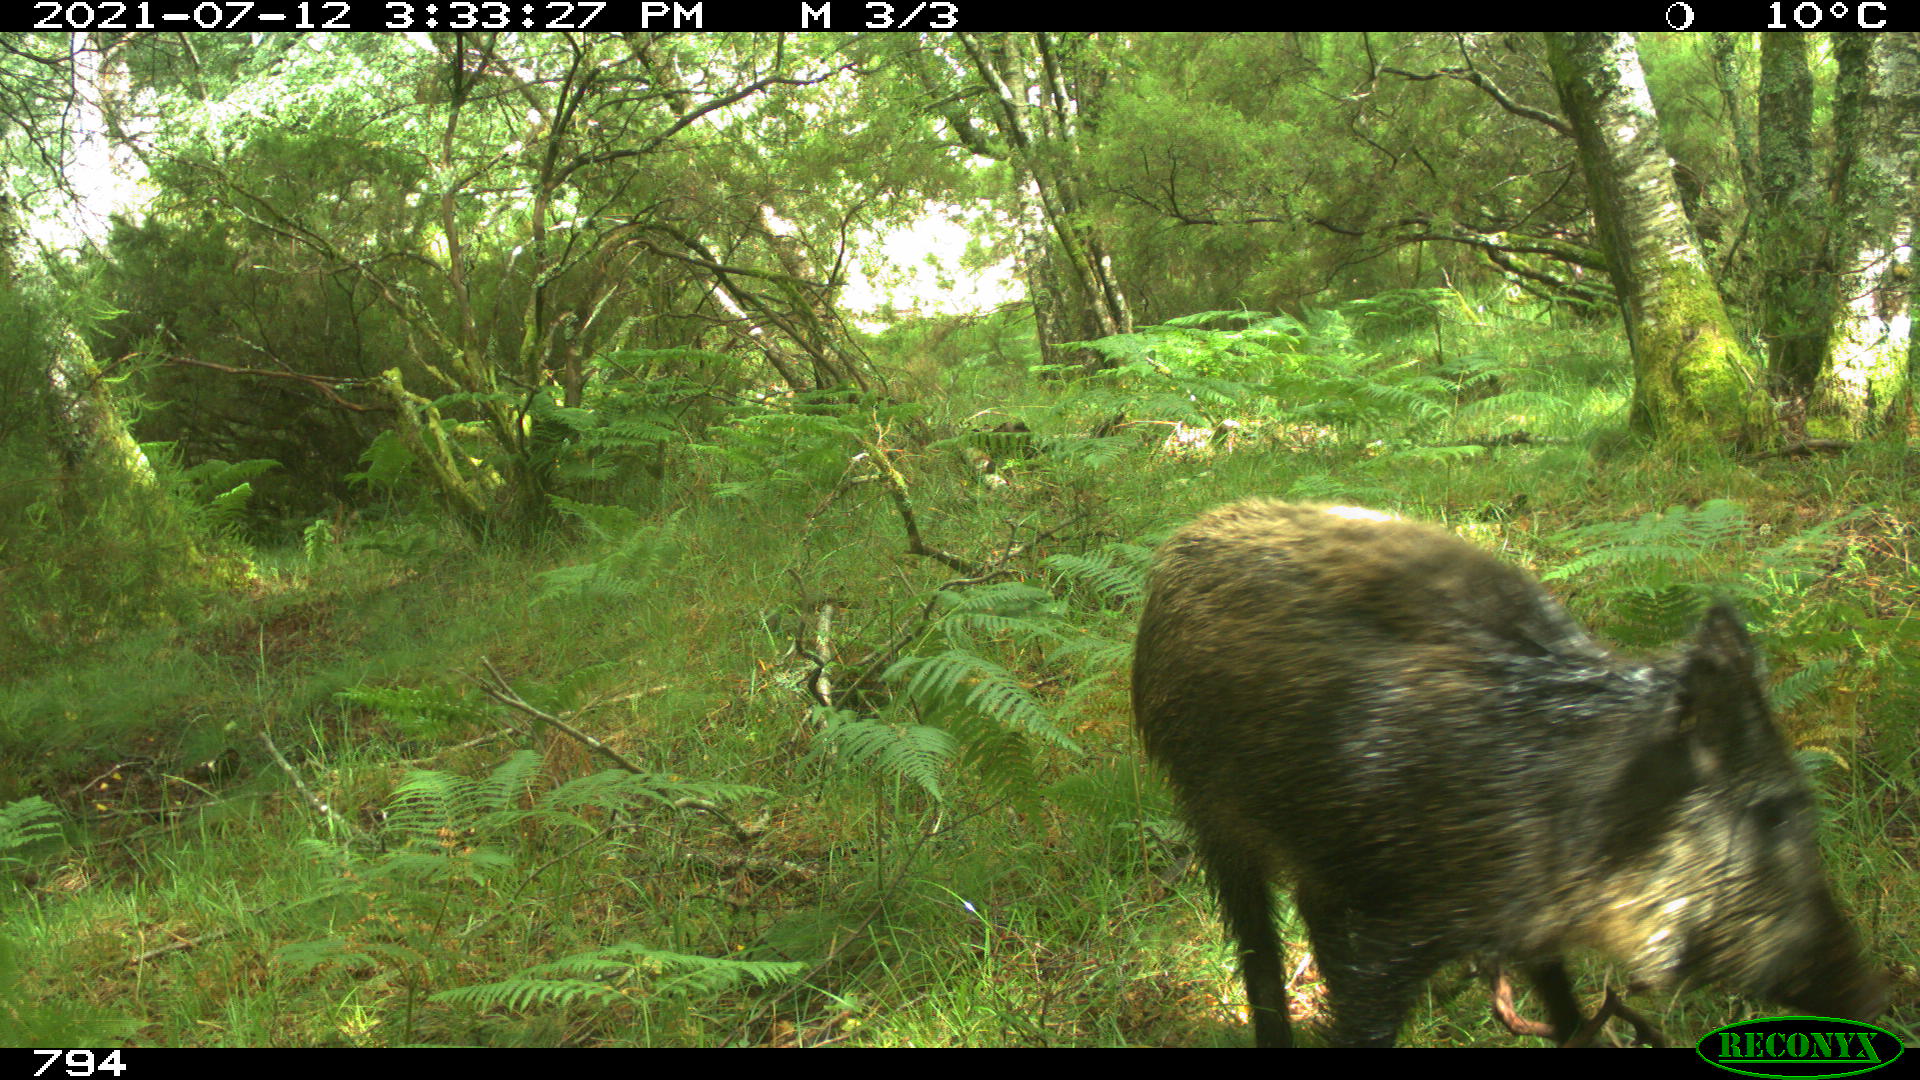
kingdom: Animalia
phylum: Chordata
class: Mammalia
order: Artiodactyla
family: Suidae
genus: Sus
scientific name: Sus scrofa
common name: Wild boar
